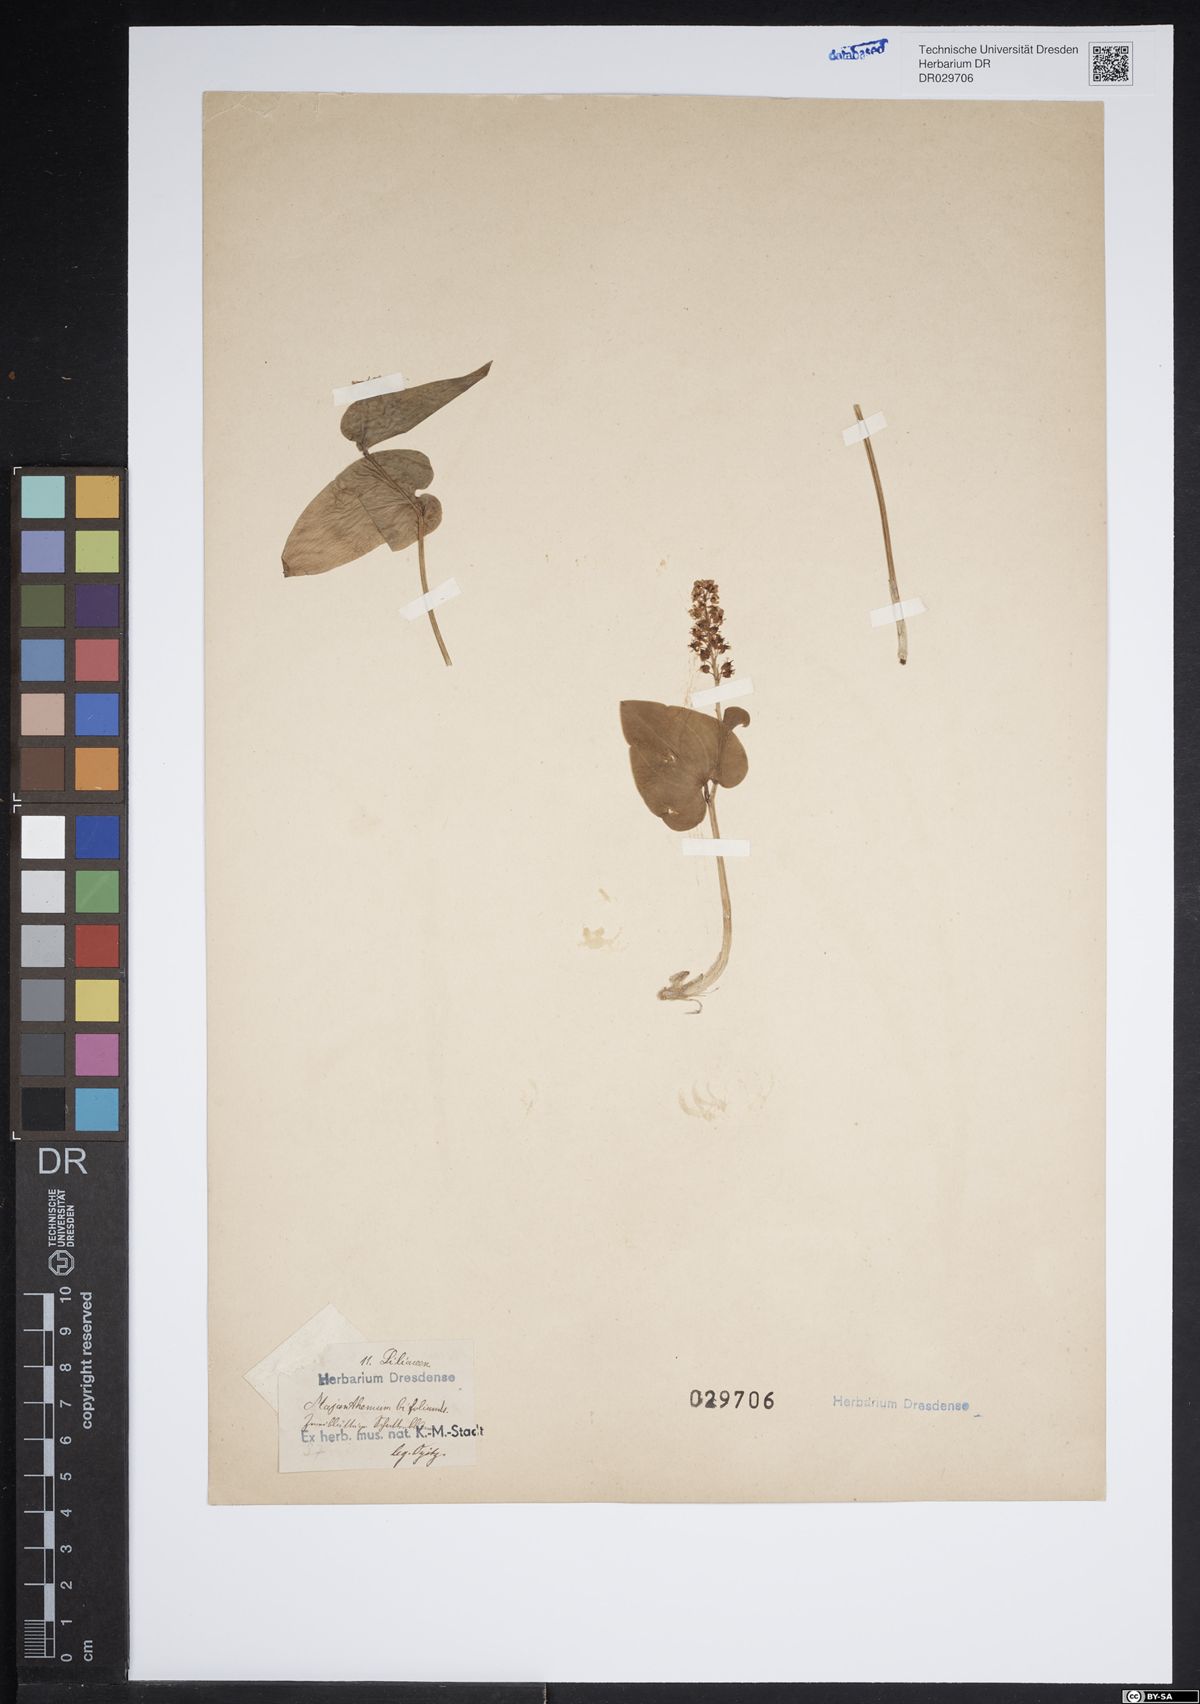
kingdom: Plantae
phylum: Tracheophyta
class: Liliopsida
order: Asparagales
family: Asparagaceae
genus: Maianthemum
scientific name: Maianthemum bifolium
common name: May lily
